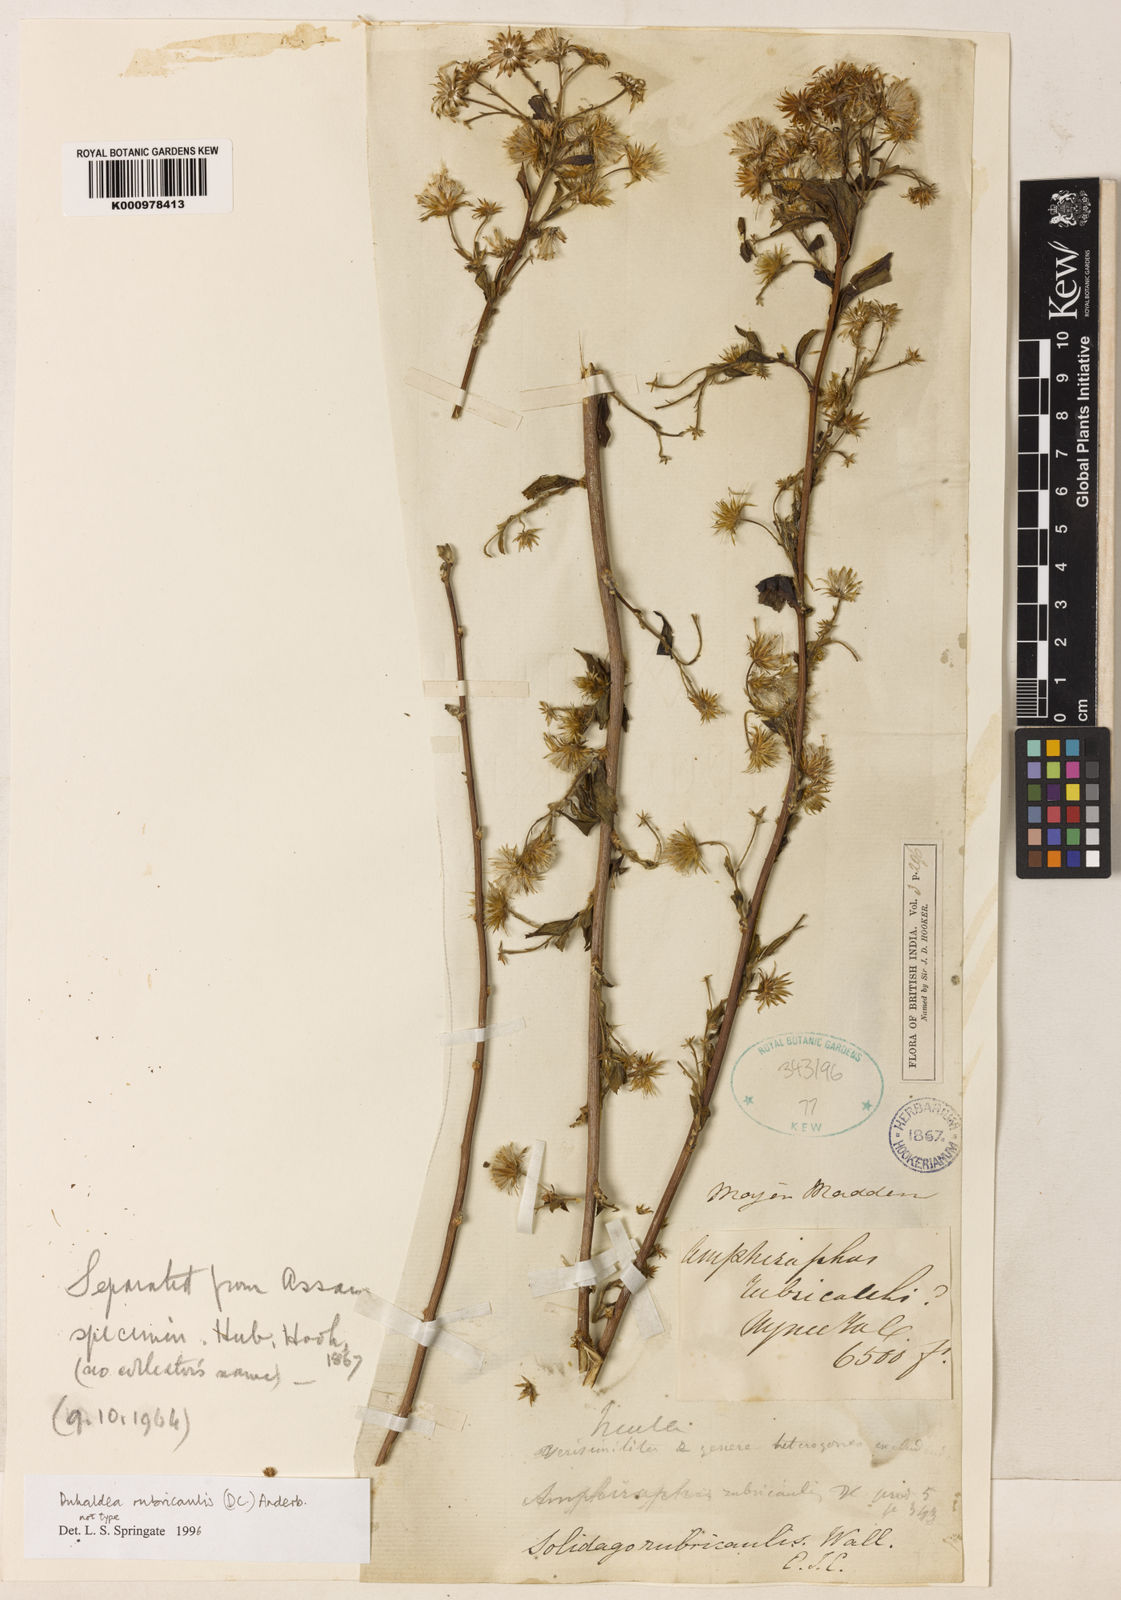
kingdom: Plantae
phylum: Tracheophyta
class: Magnoliopsida
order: Asterales
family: Asteraceae
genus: Duhaldea
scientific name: Duhaldea rubricaulis
